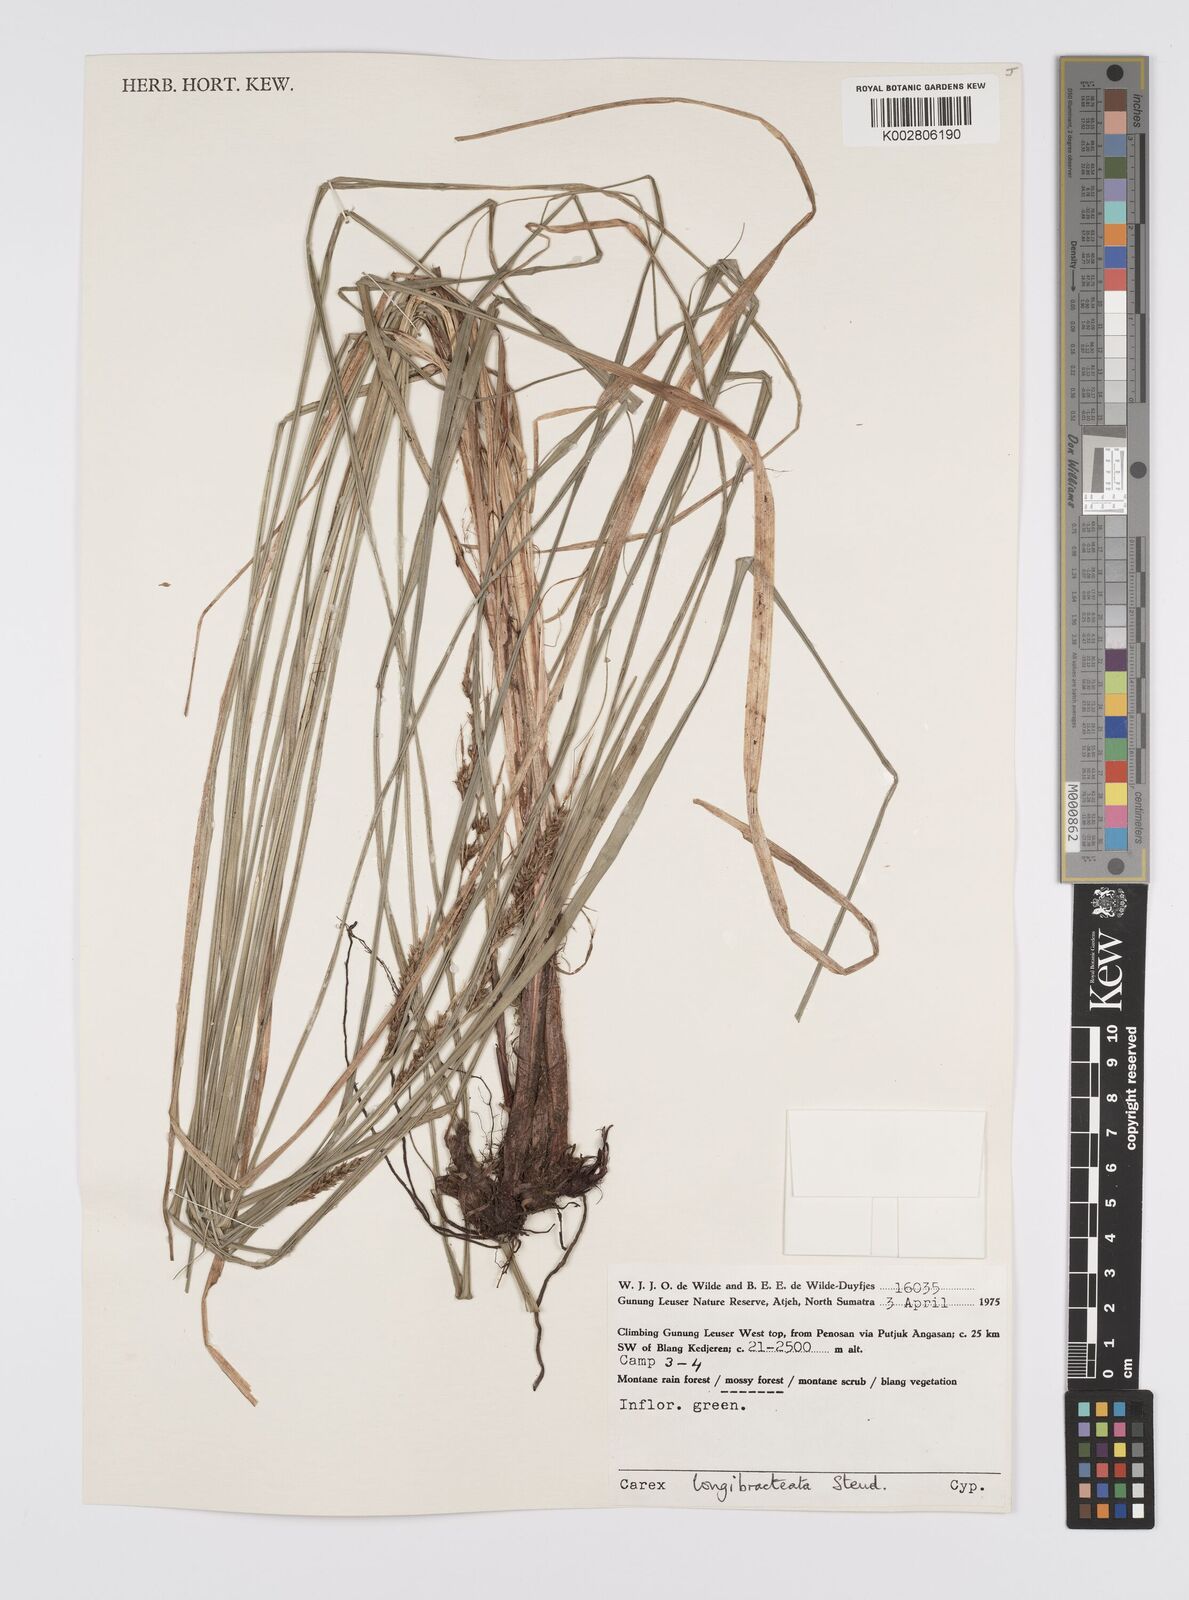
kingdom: Plantae
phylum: Tracheophyta
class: Liliopsida
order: Poales
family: Cyperaceae
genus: Carex
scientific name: Carex myosurus
